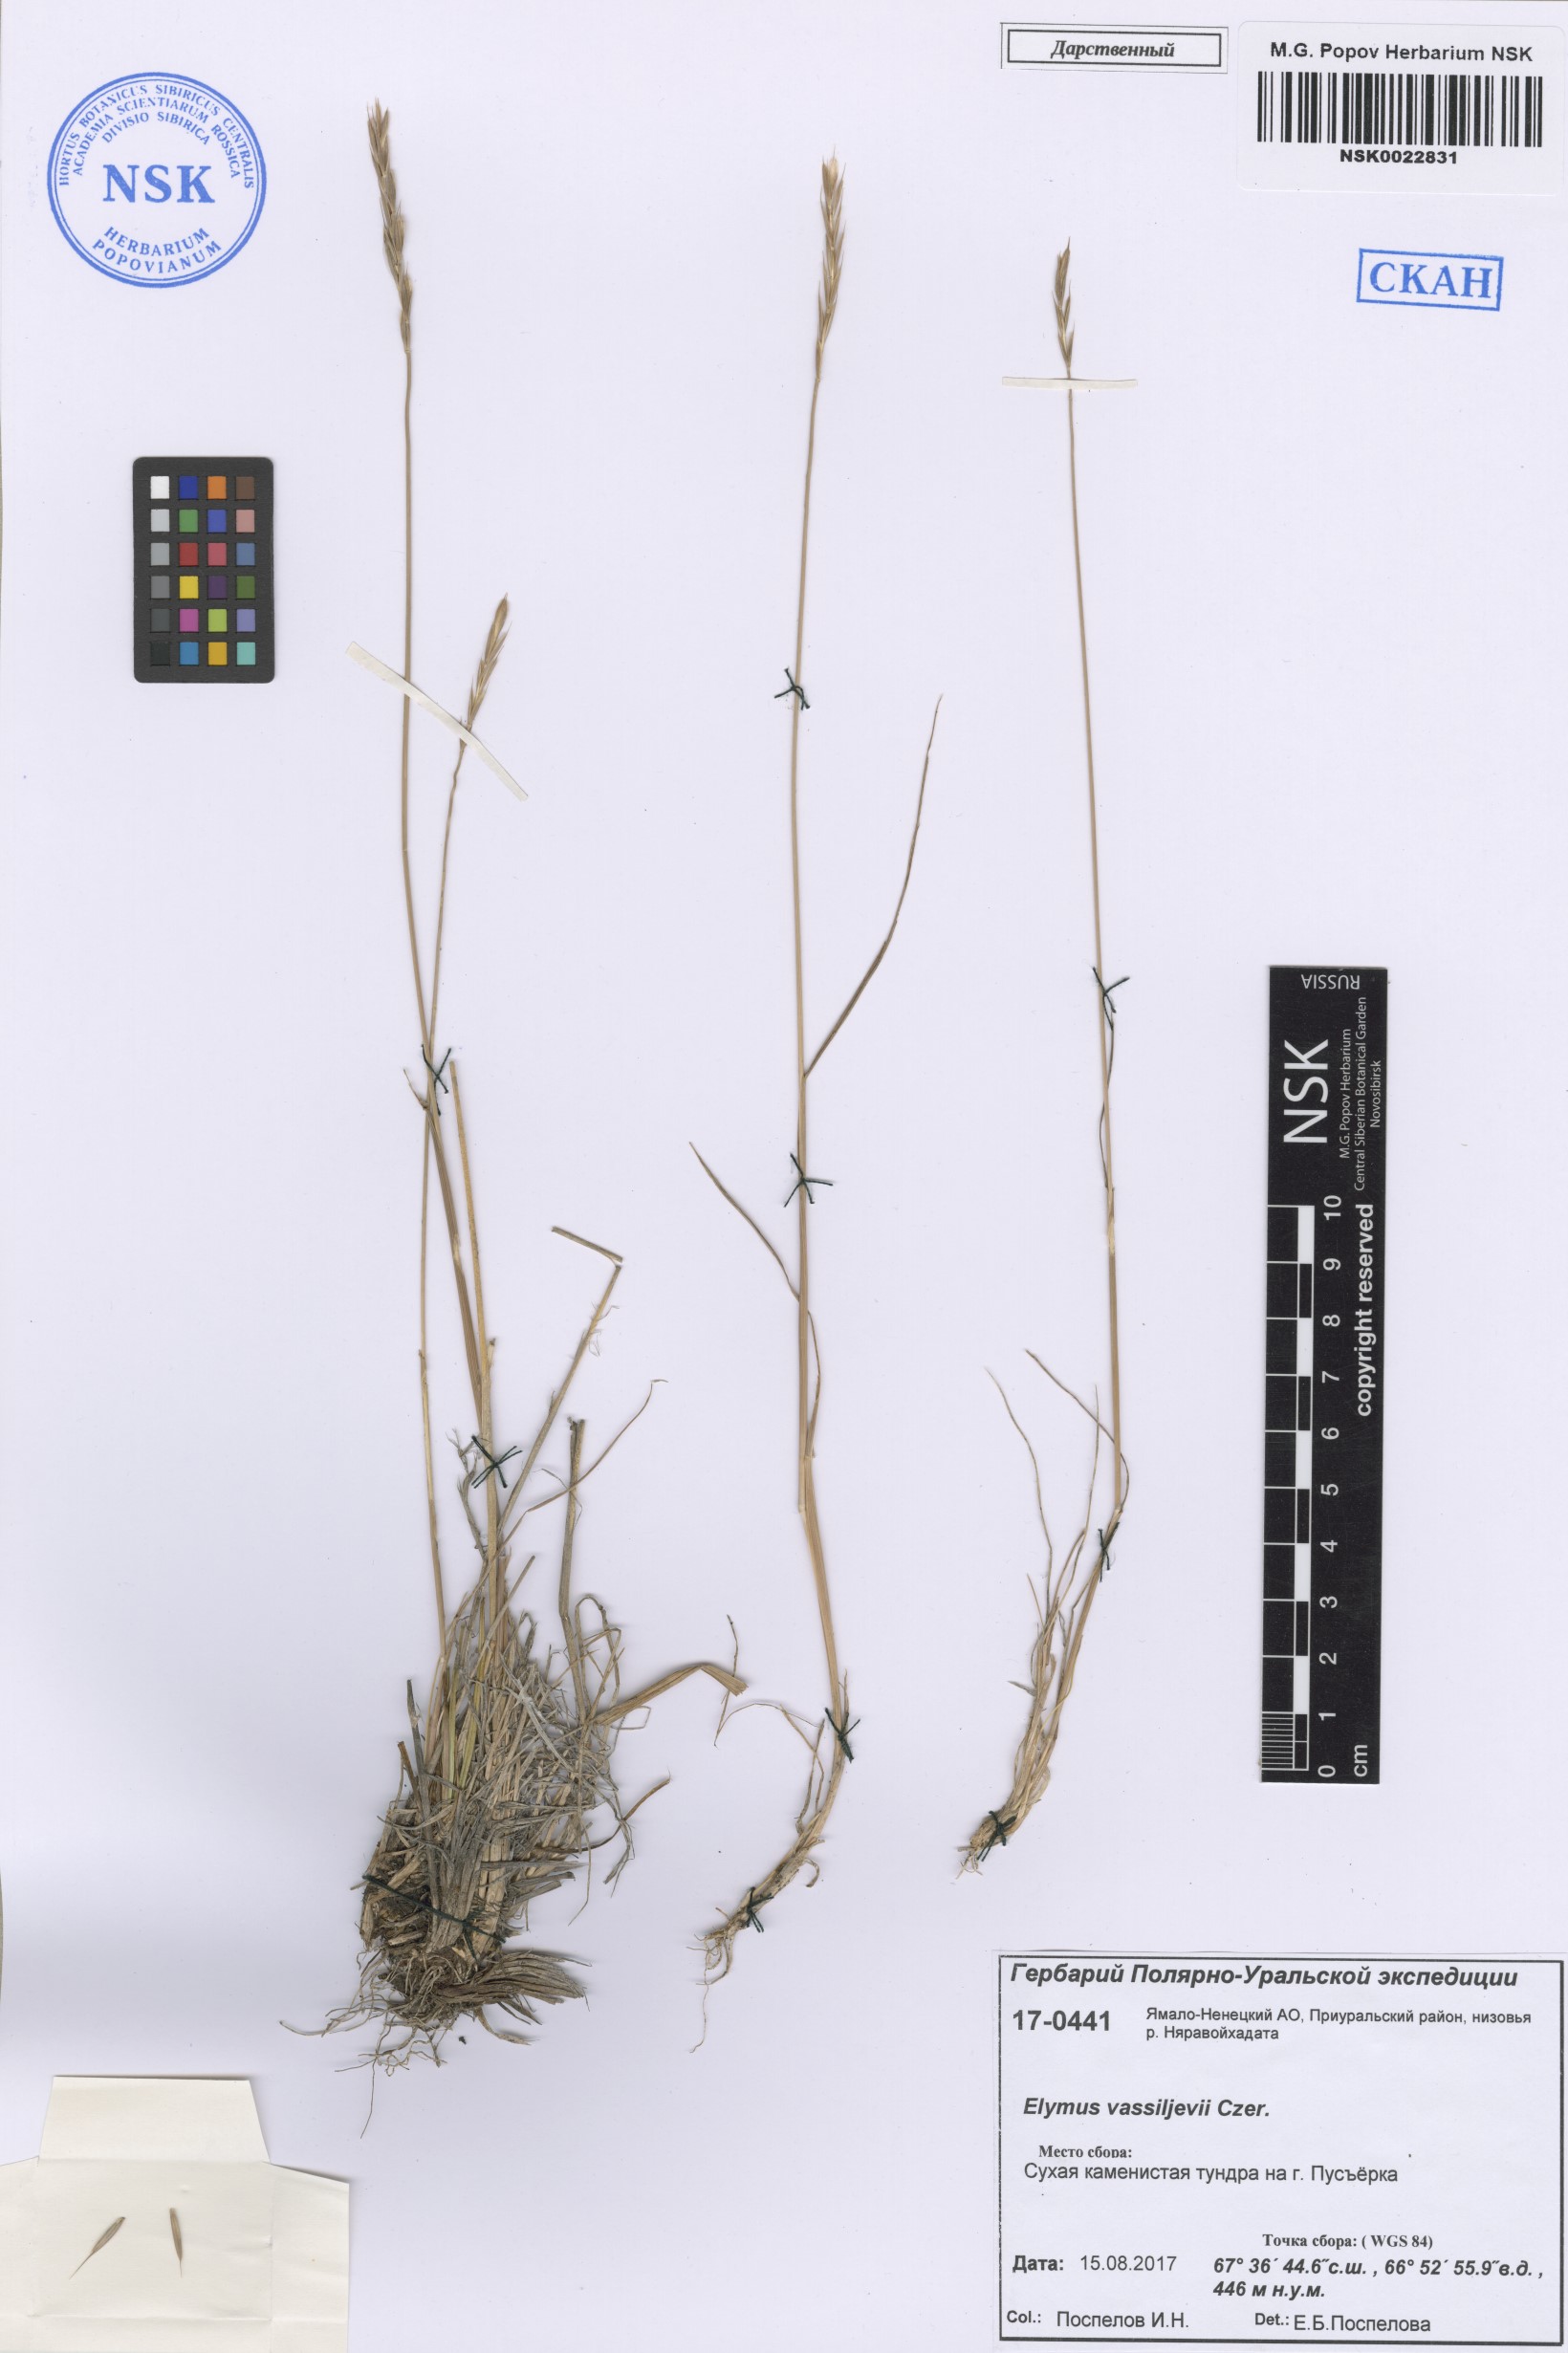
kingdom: Plantae
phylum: Tracheophyta
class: Liliopsida
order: Poales
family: Poaceae
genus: Elymus
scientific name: Elymus sajanensis
